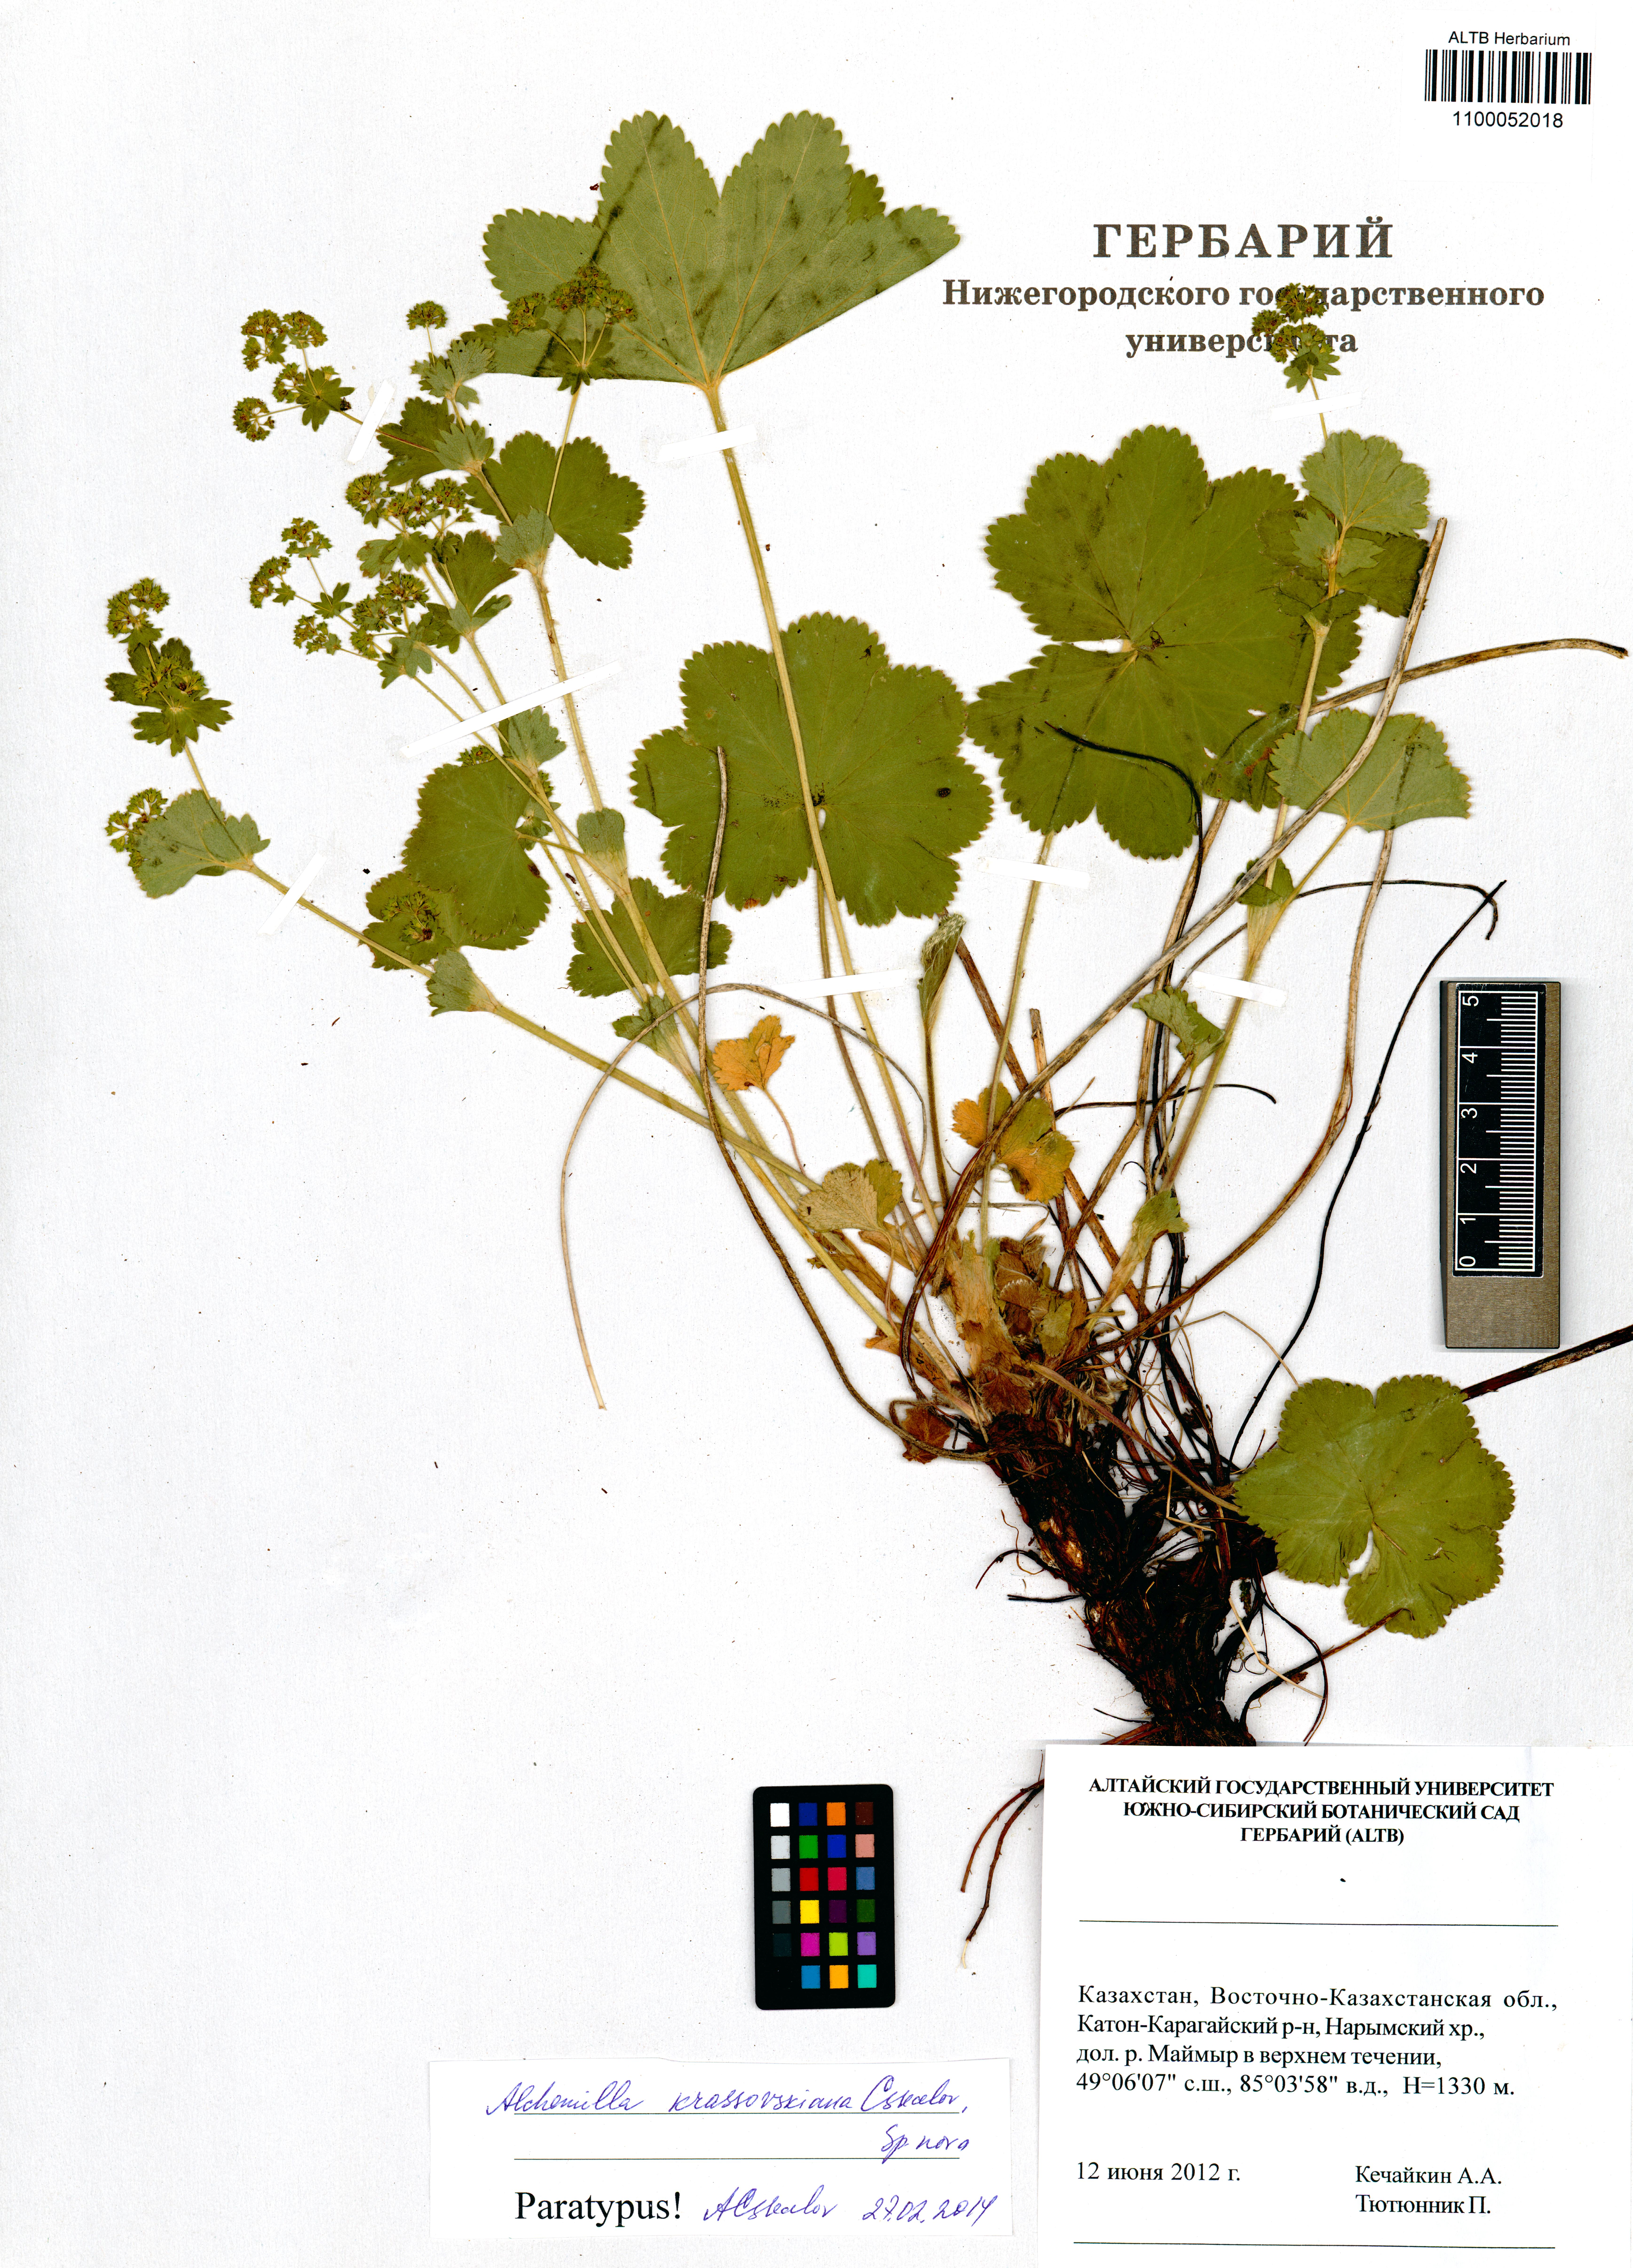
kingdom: Plantae
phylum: Tracheophyta
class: Magnoliopsida
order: Rosales
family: Rosaceae
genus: Alchemilla
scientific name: Alchemilla krassovskiana
